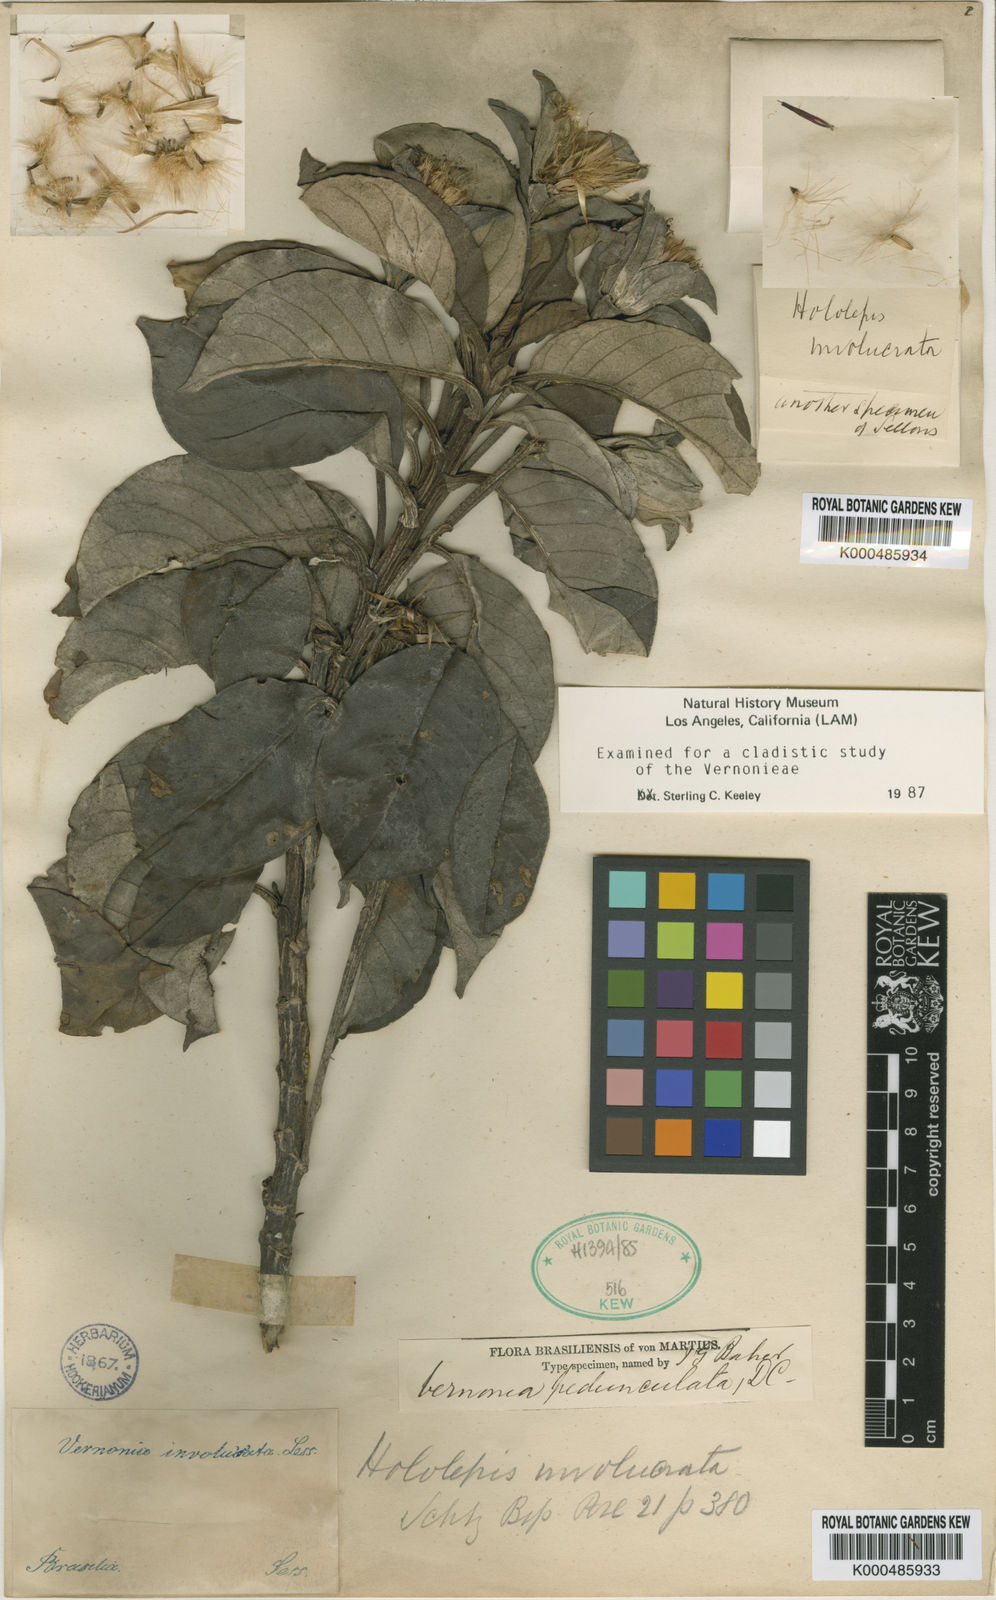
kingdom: Plantae
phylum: Tracheophyta
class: Magnoliopsida
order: Asterales
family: Asteraceae
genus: Hololepis
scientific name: Hololepis pedunculata
